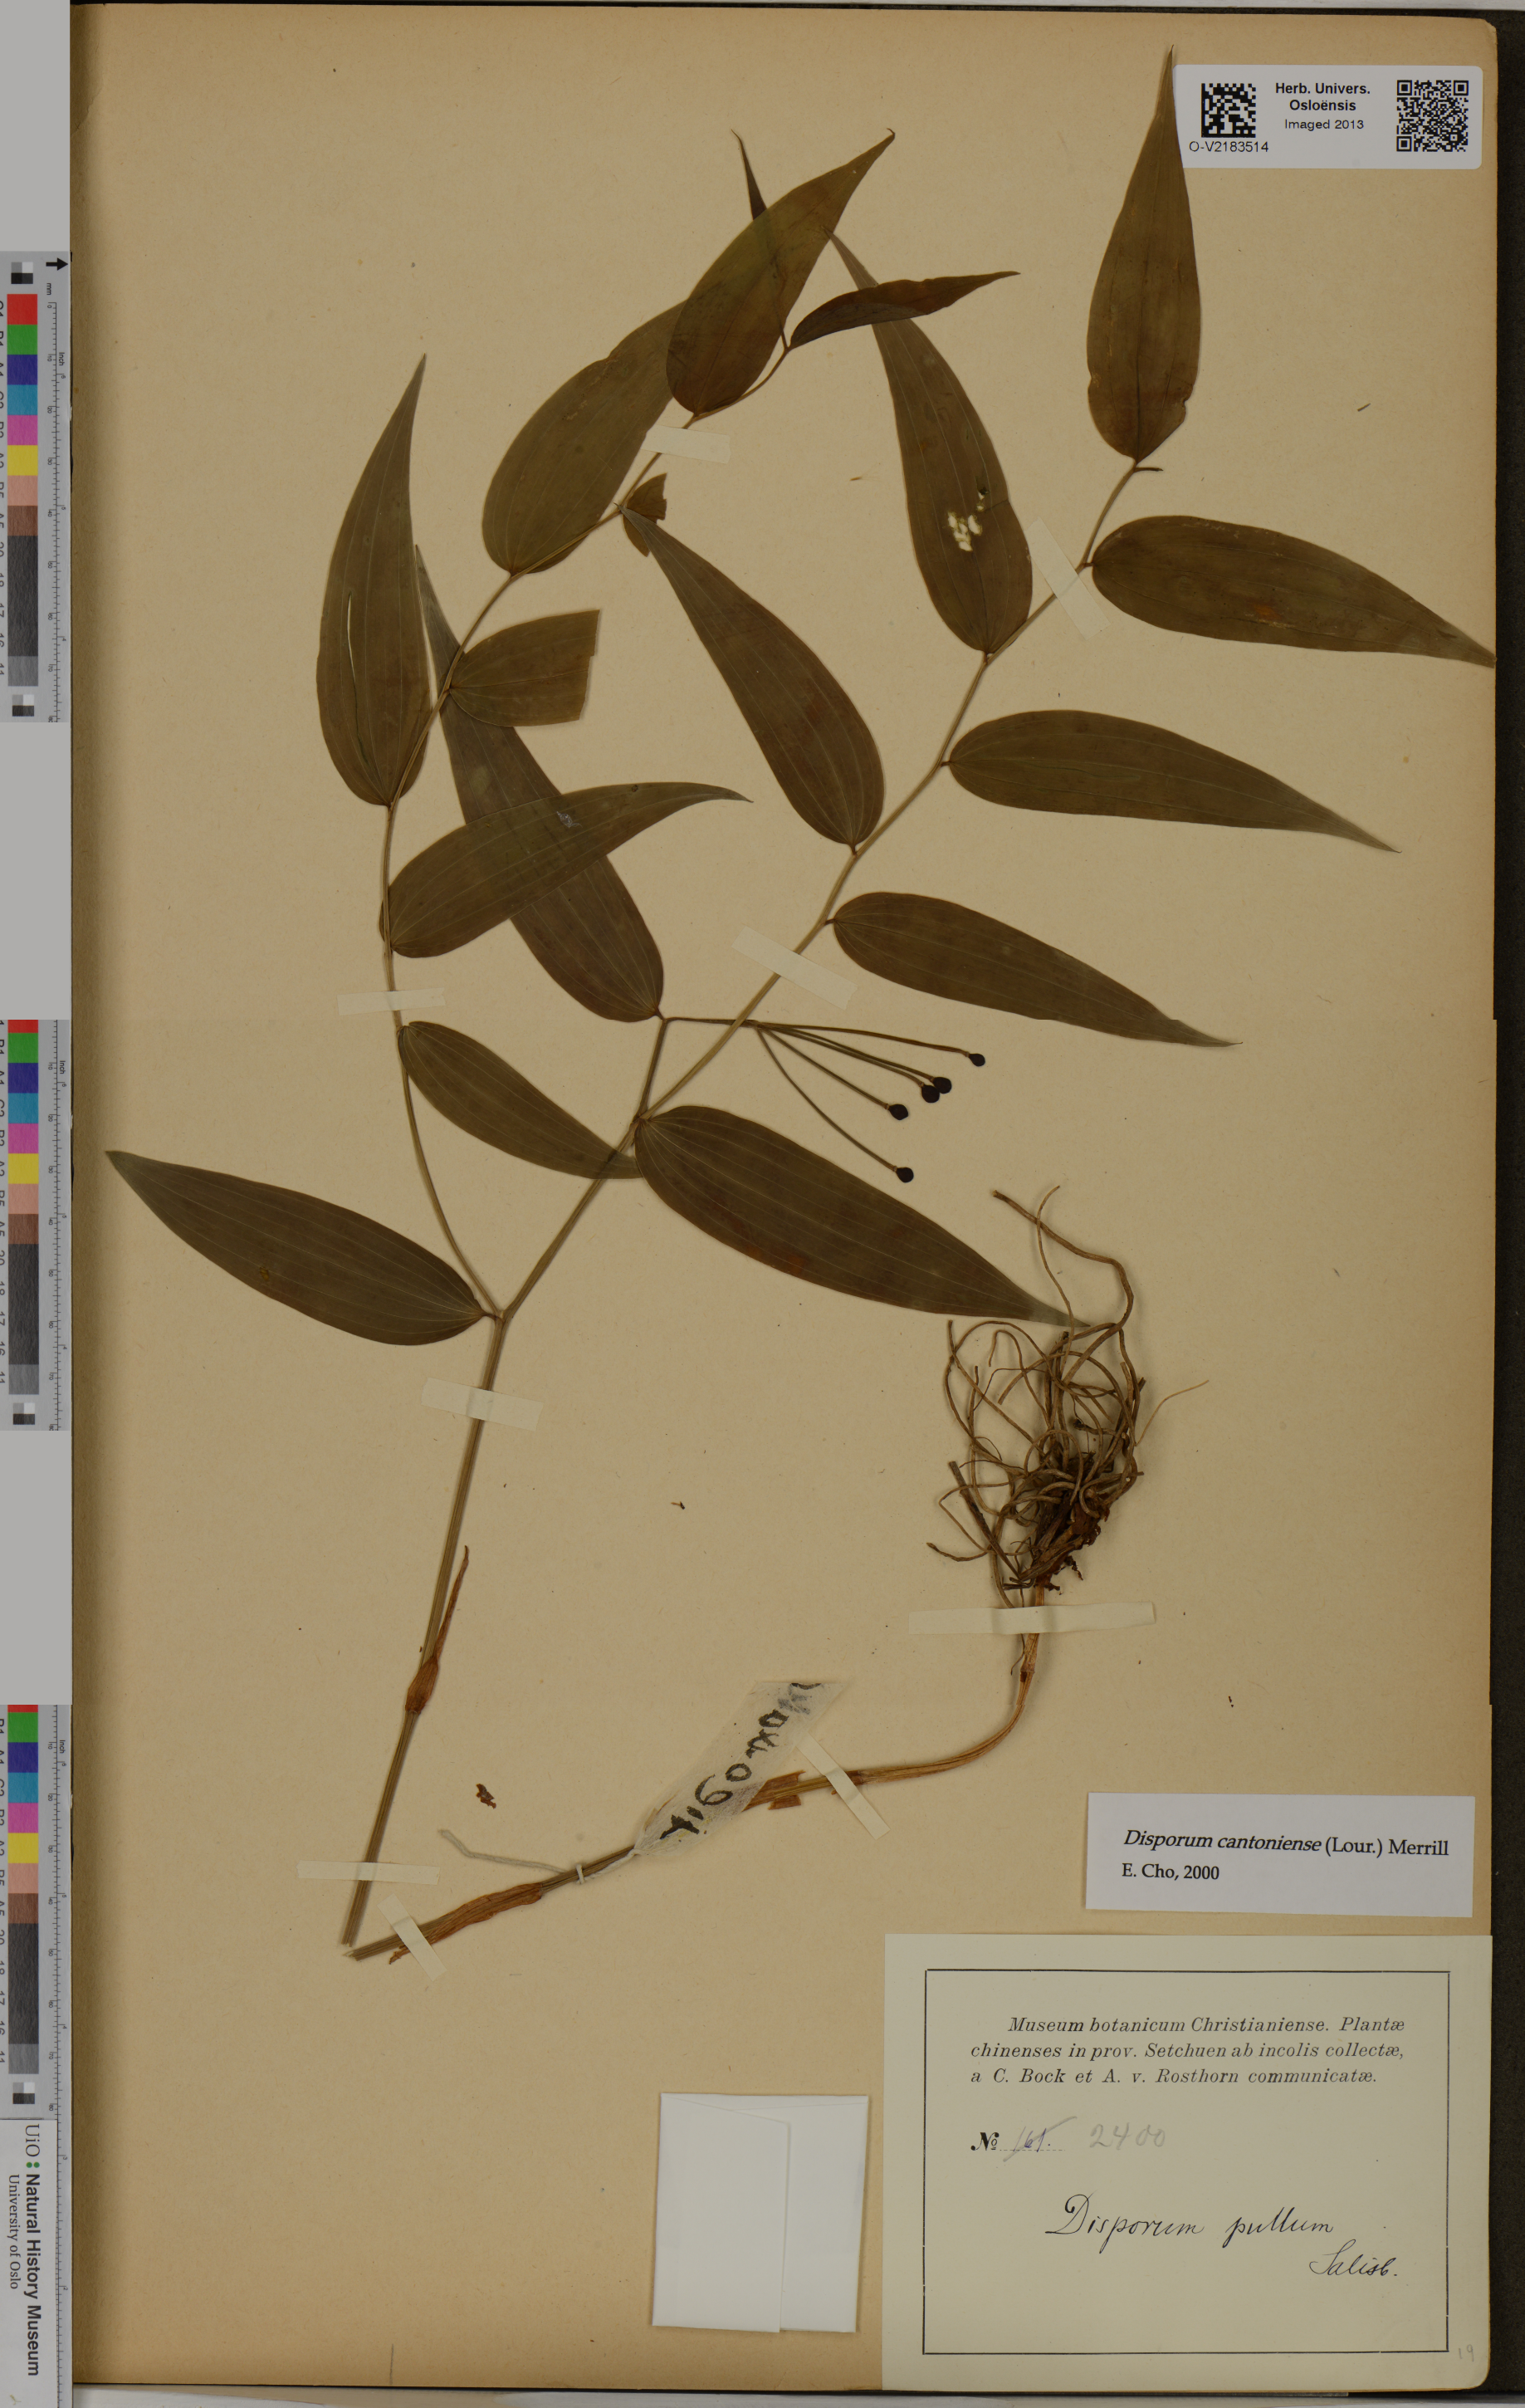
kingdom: Plantae
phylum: Tracheophyta
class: Liliopsida
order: Liliales
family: Colchicaceae
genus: Disporum
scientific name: Disporum cantoniense
